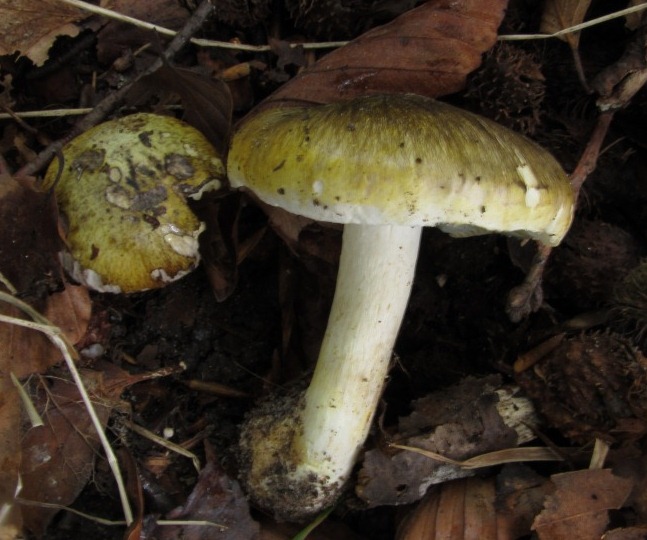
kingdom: Fungi
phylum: Basidiomycota
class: Agaricomycetes
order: Agaricales
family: Tricholomataceae
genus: Tricholoma
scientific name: Tricholoma sejunctum
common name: grøngul ridderhat
